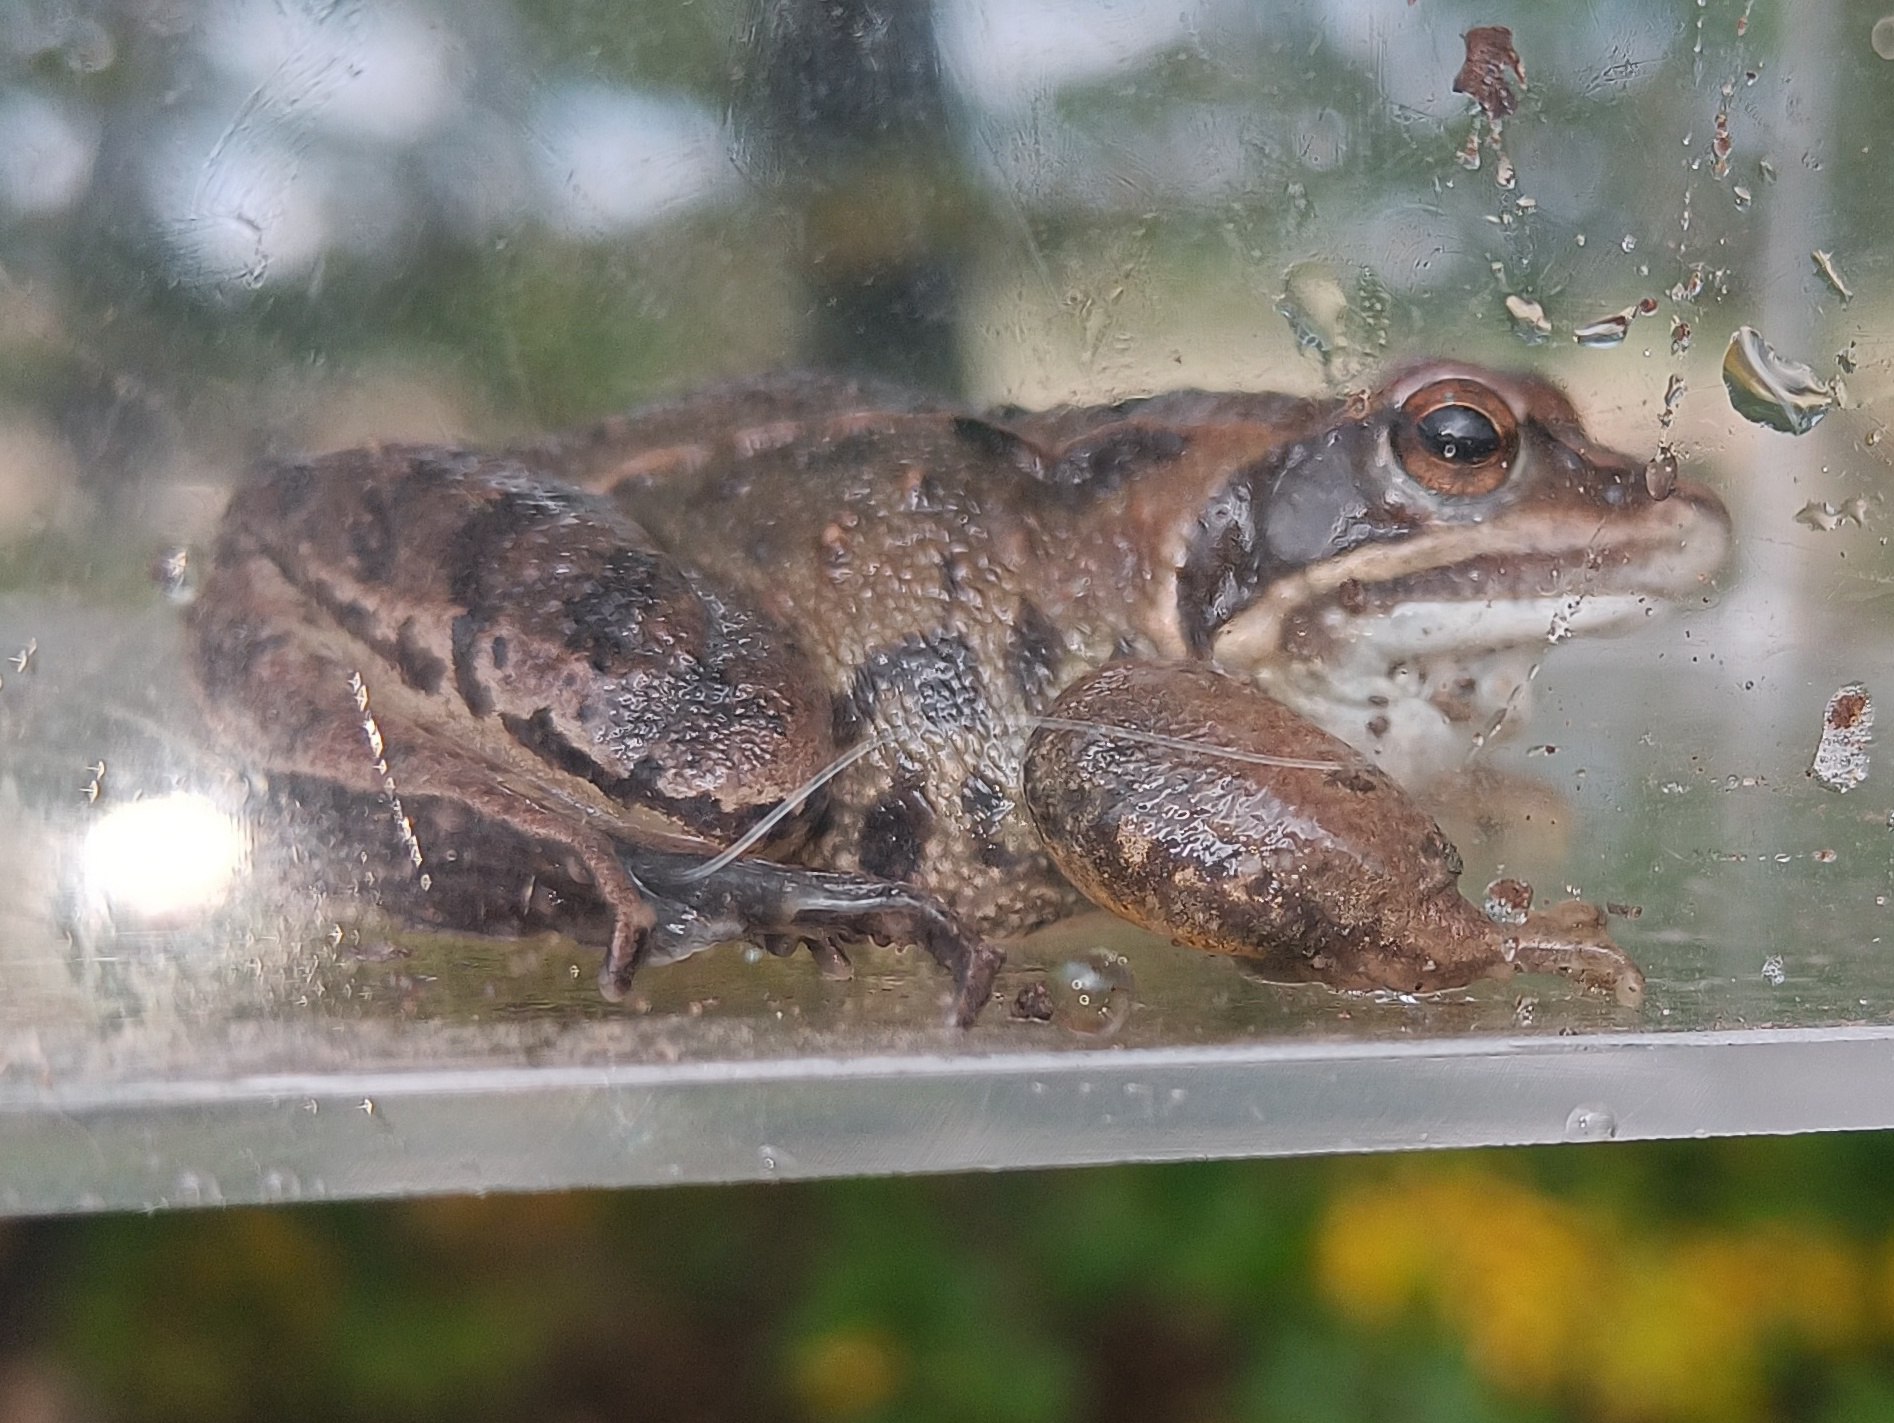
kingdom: Animalia
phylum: Chordata
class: Amphibia
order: Anura
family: Ranidae
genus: Rana
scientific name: Rana arvalis
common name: Spidssnudet frø
